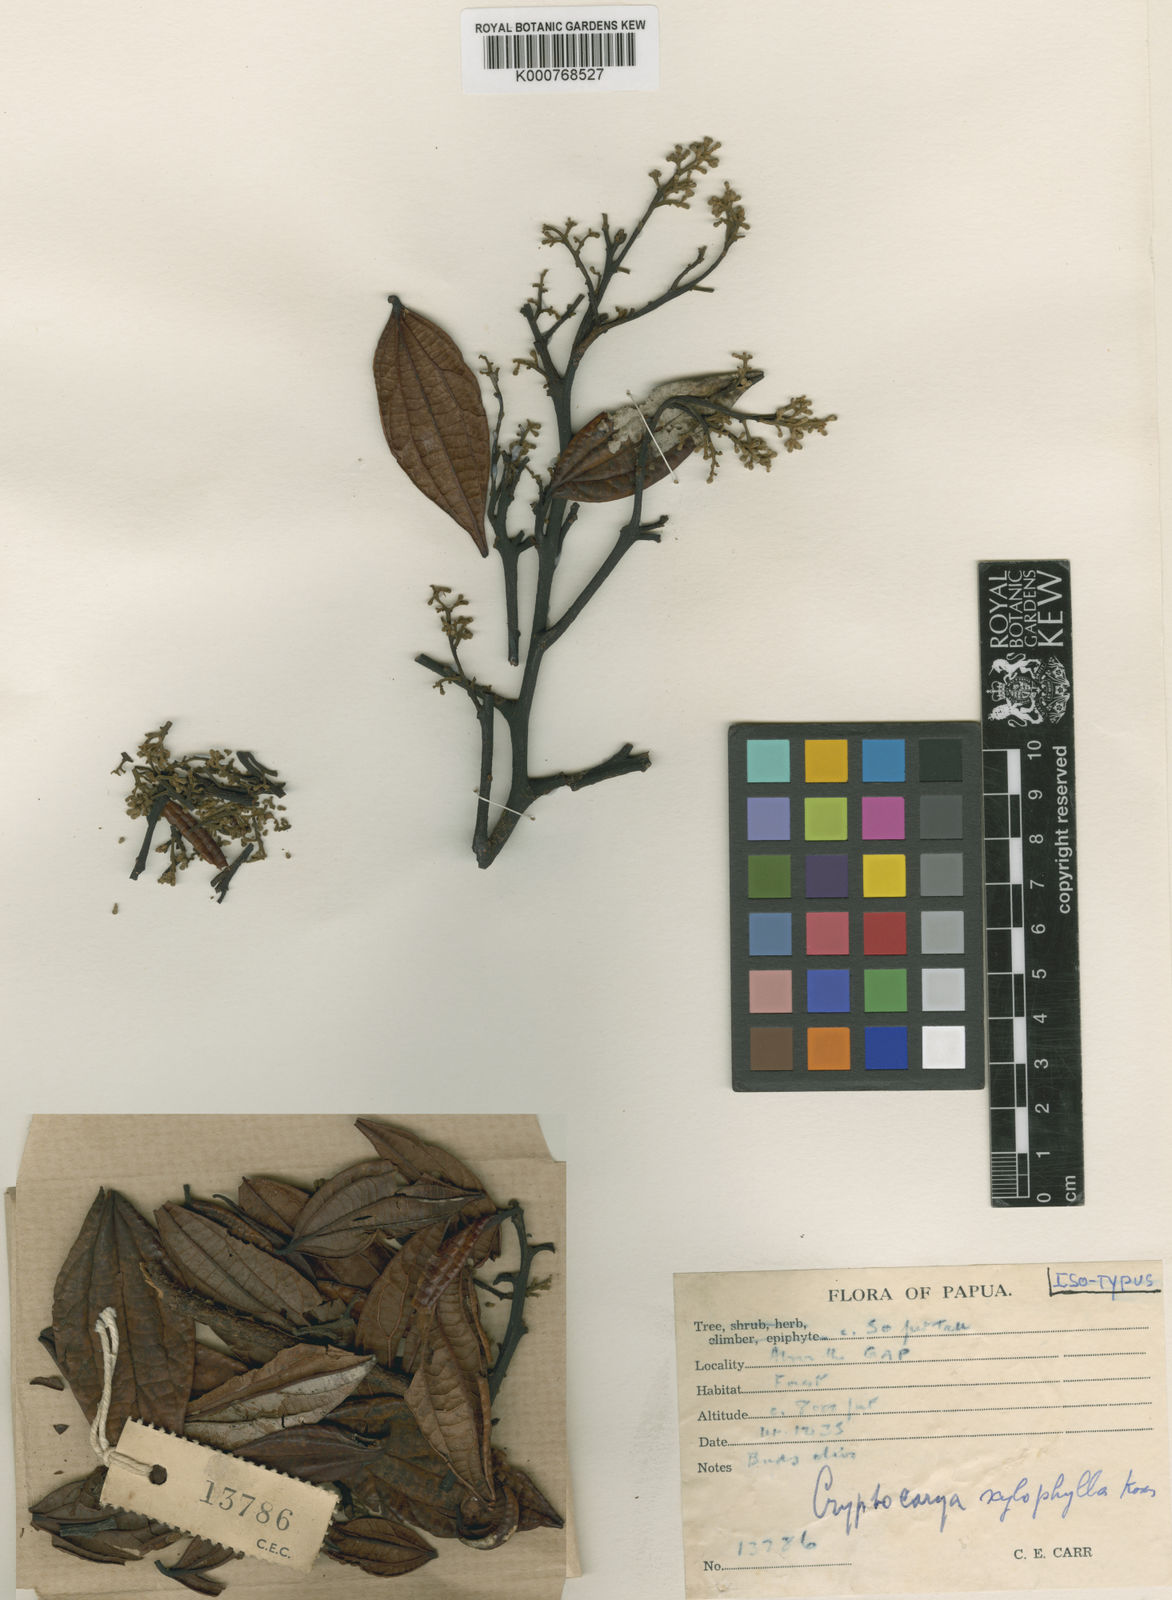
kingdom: Plantae
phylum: Tracheophyta
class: Magnoliopsida
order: Laurales
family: Lauraceae
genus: Cryptocarya
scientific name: Cryptocarya xylophylla
